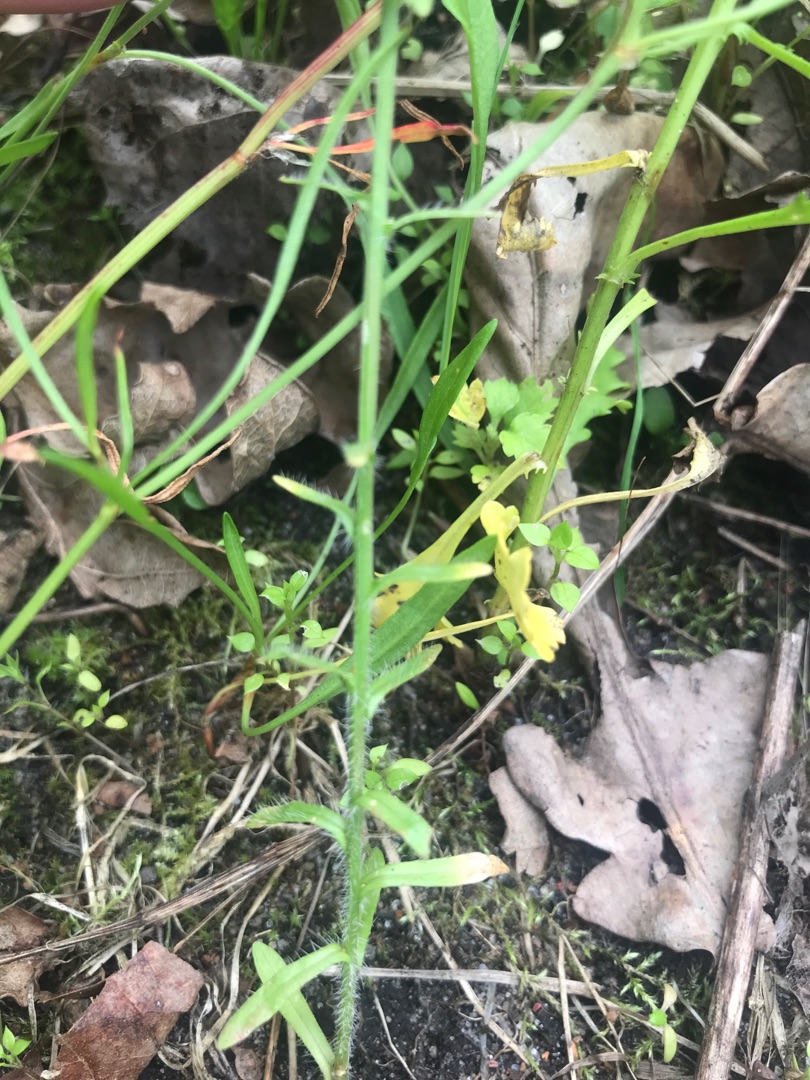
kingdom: Plantae
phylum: Tracheophyta
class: Magnoliopsida
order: Asterales
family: Campanulaceae
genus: Jasione
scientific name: Jasione montana
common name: Blåmunke
